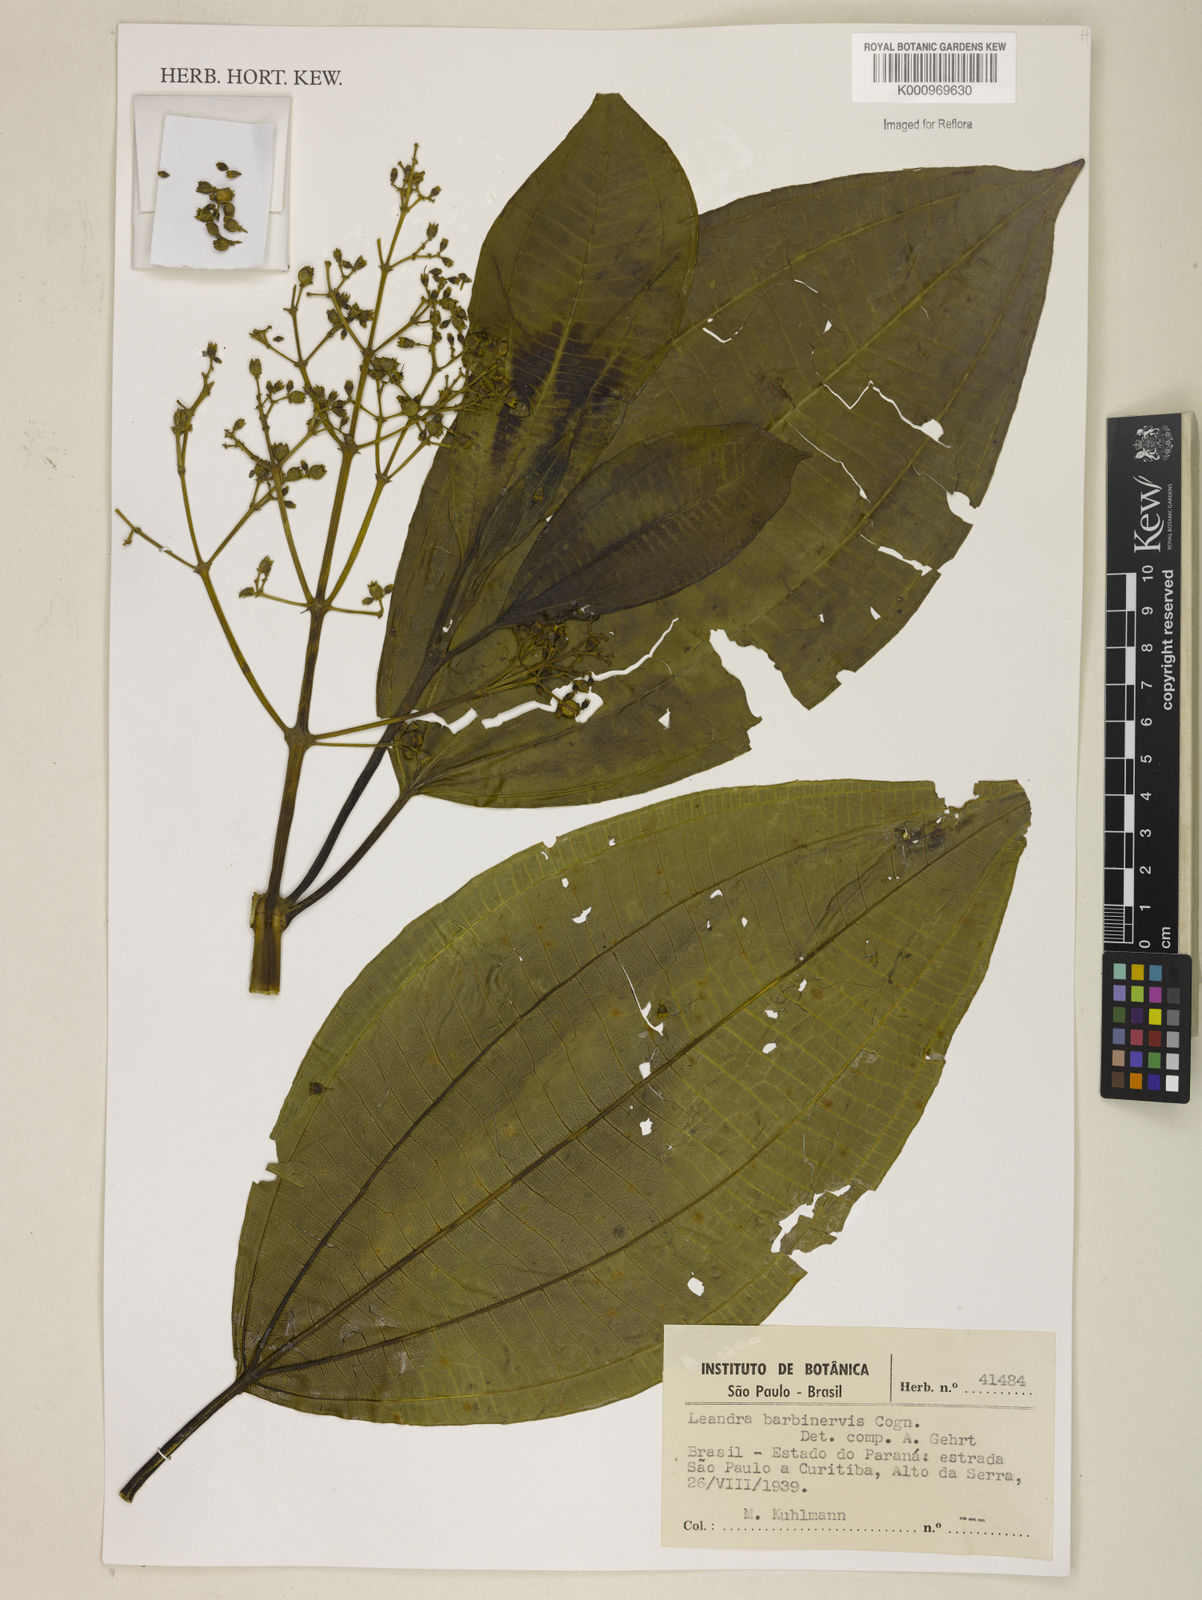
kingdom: Plantae
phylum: Tracheophyta
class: Magnoliopsida
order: Myrtales
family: Melastomataceae
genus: Miconia
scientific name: Miconia trauninensis
